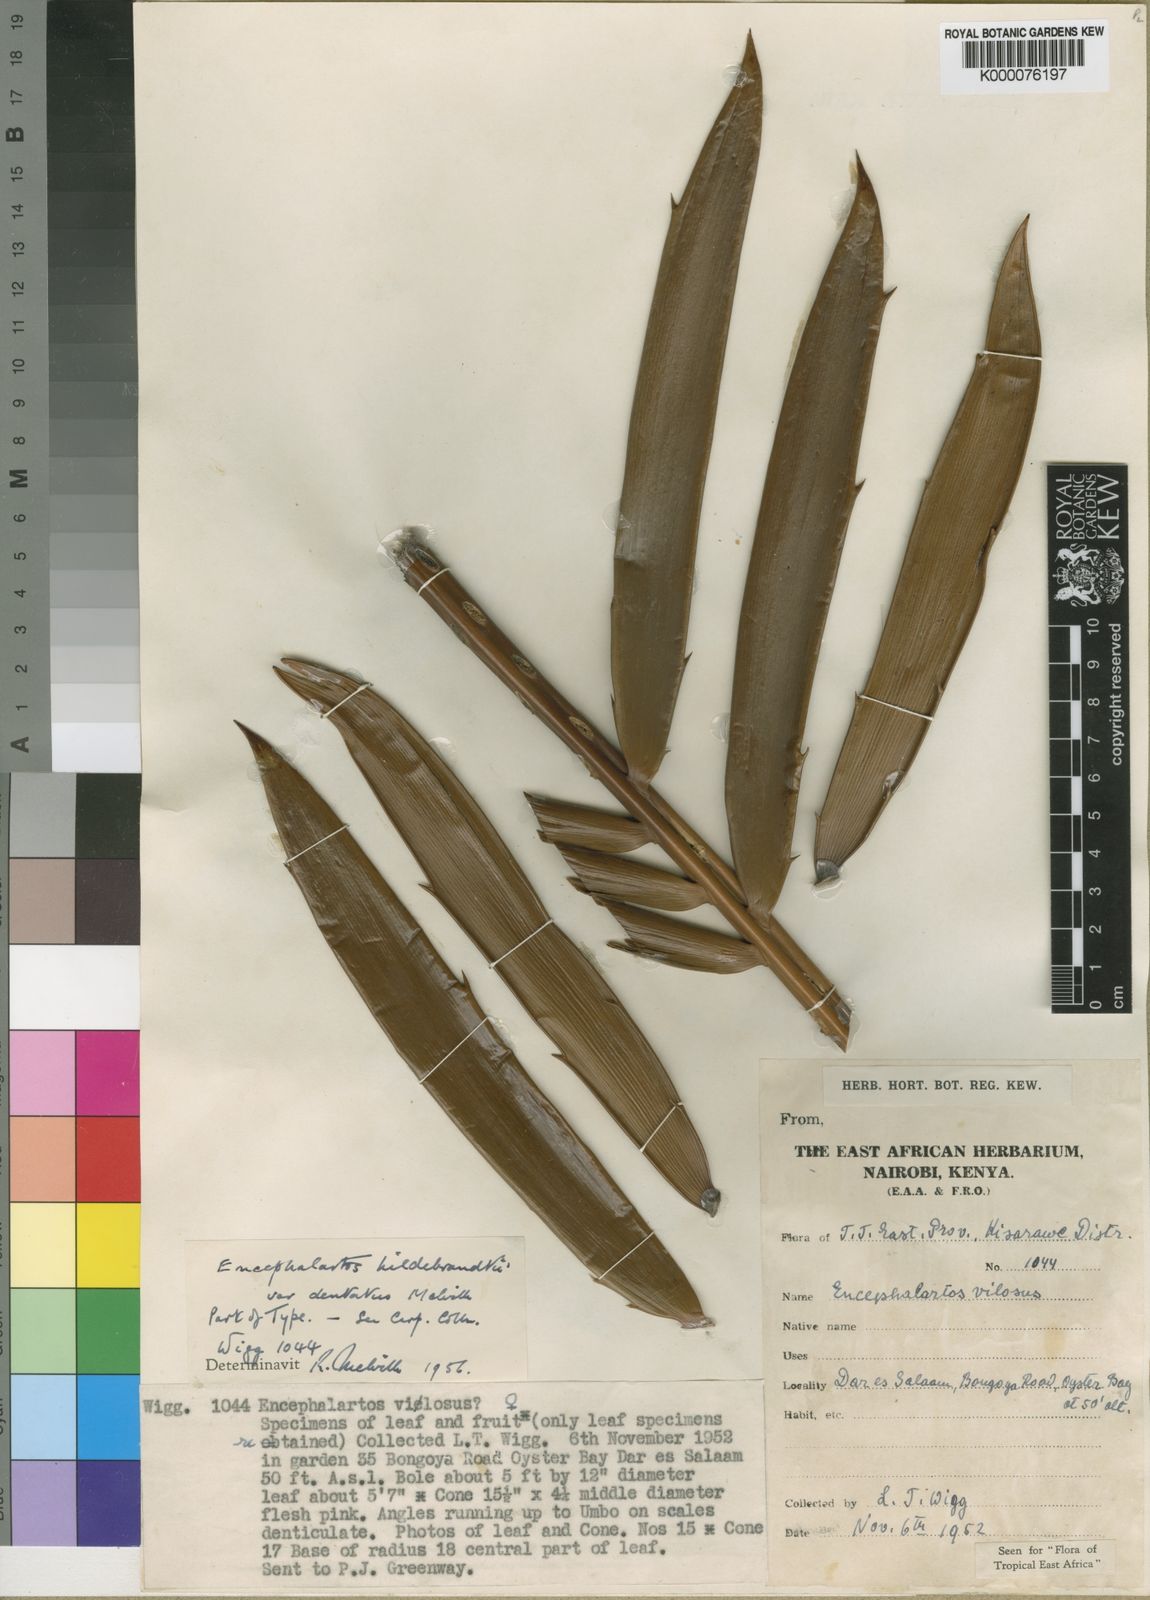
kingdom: Plantae
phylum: Tracheophyta
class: Cycadopsida
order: Cycadales
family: Zamiaceae
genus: Encephalartos
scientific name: Encephalartos
